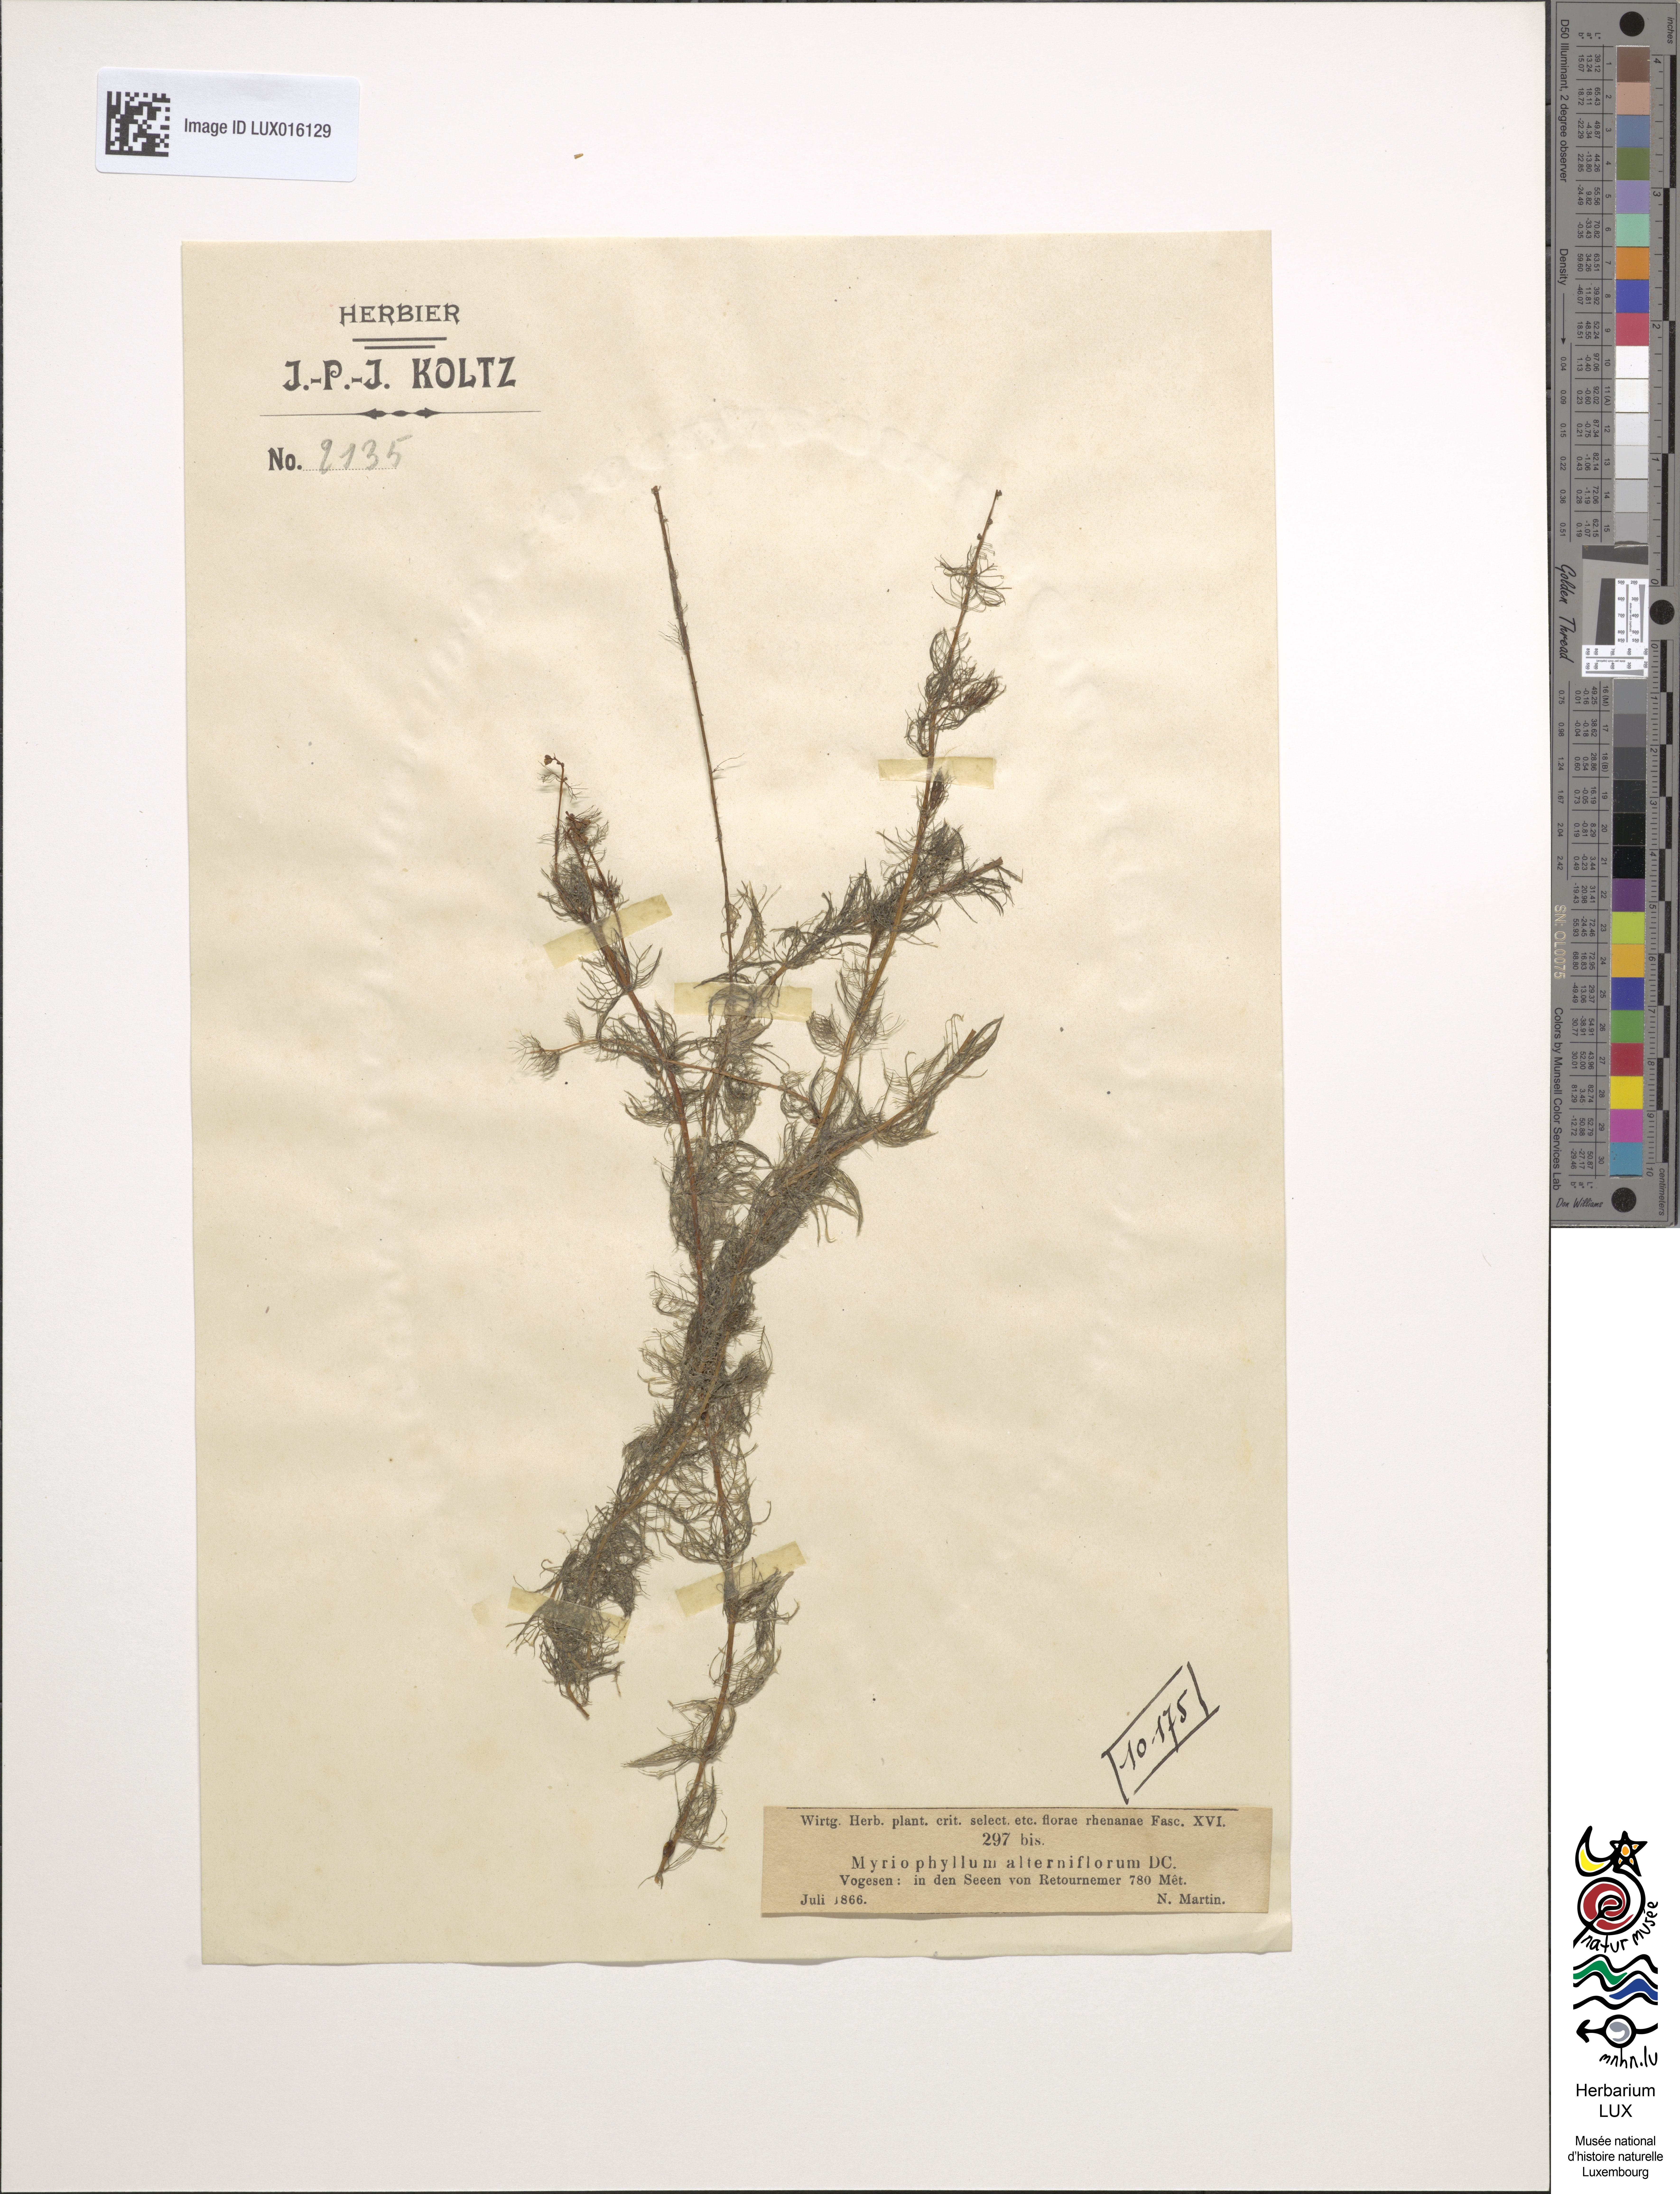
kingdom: Plantae
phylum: Tracheophyta
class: Magnoliopsida
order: Saxifragales
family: Haloragaceae
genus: Myriophyllum
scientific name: Myriophyllum alterniflorum
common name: Alternate water-milfoil
